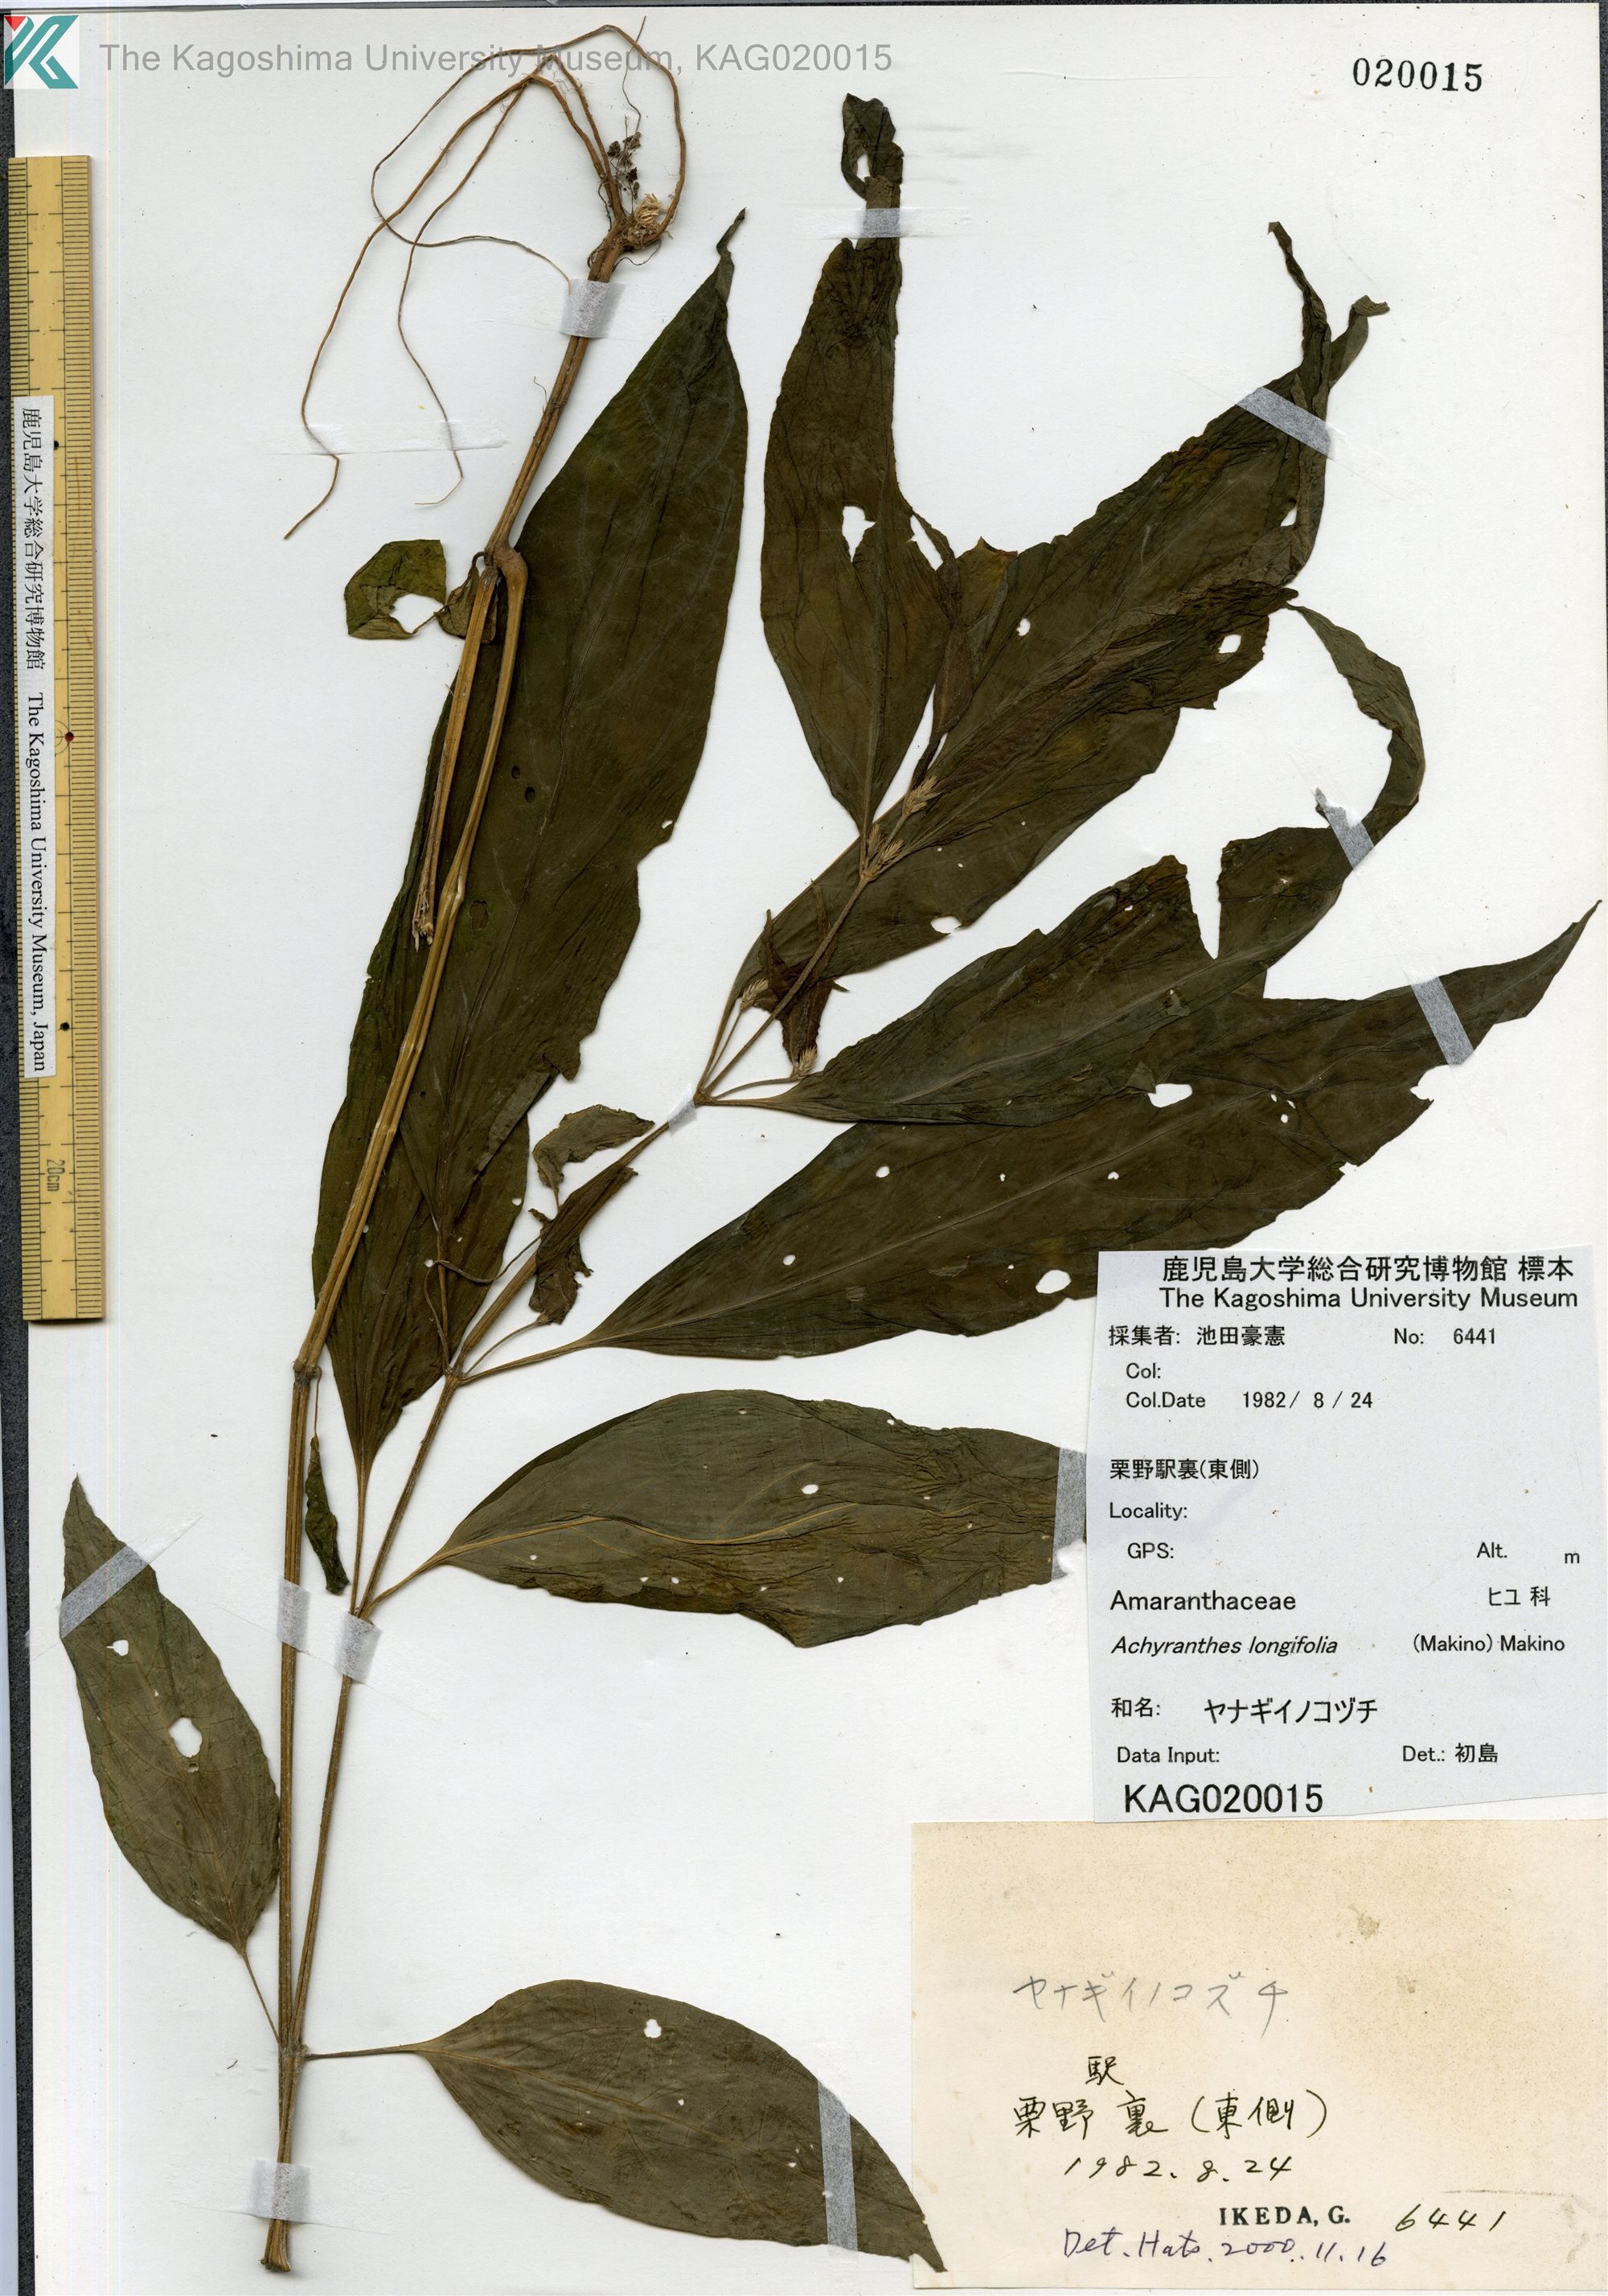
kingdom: Plantae
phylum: Tracheophyta
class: Magnoliopsida
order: Caryophyllales
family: Amaranthaceae
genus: Achyranthes
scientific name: Achyranthes bidentata
